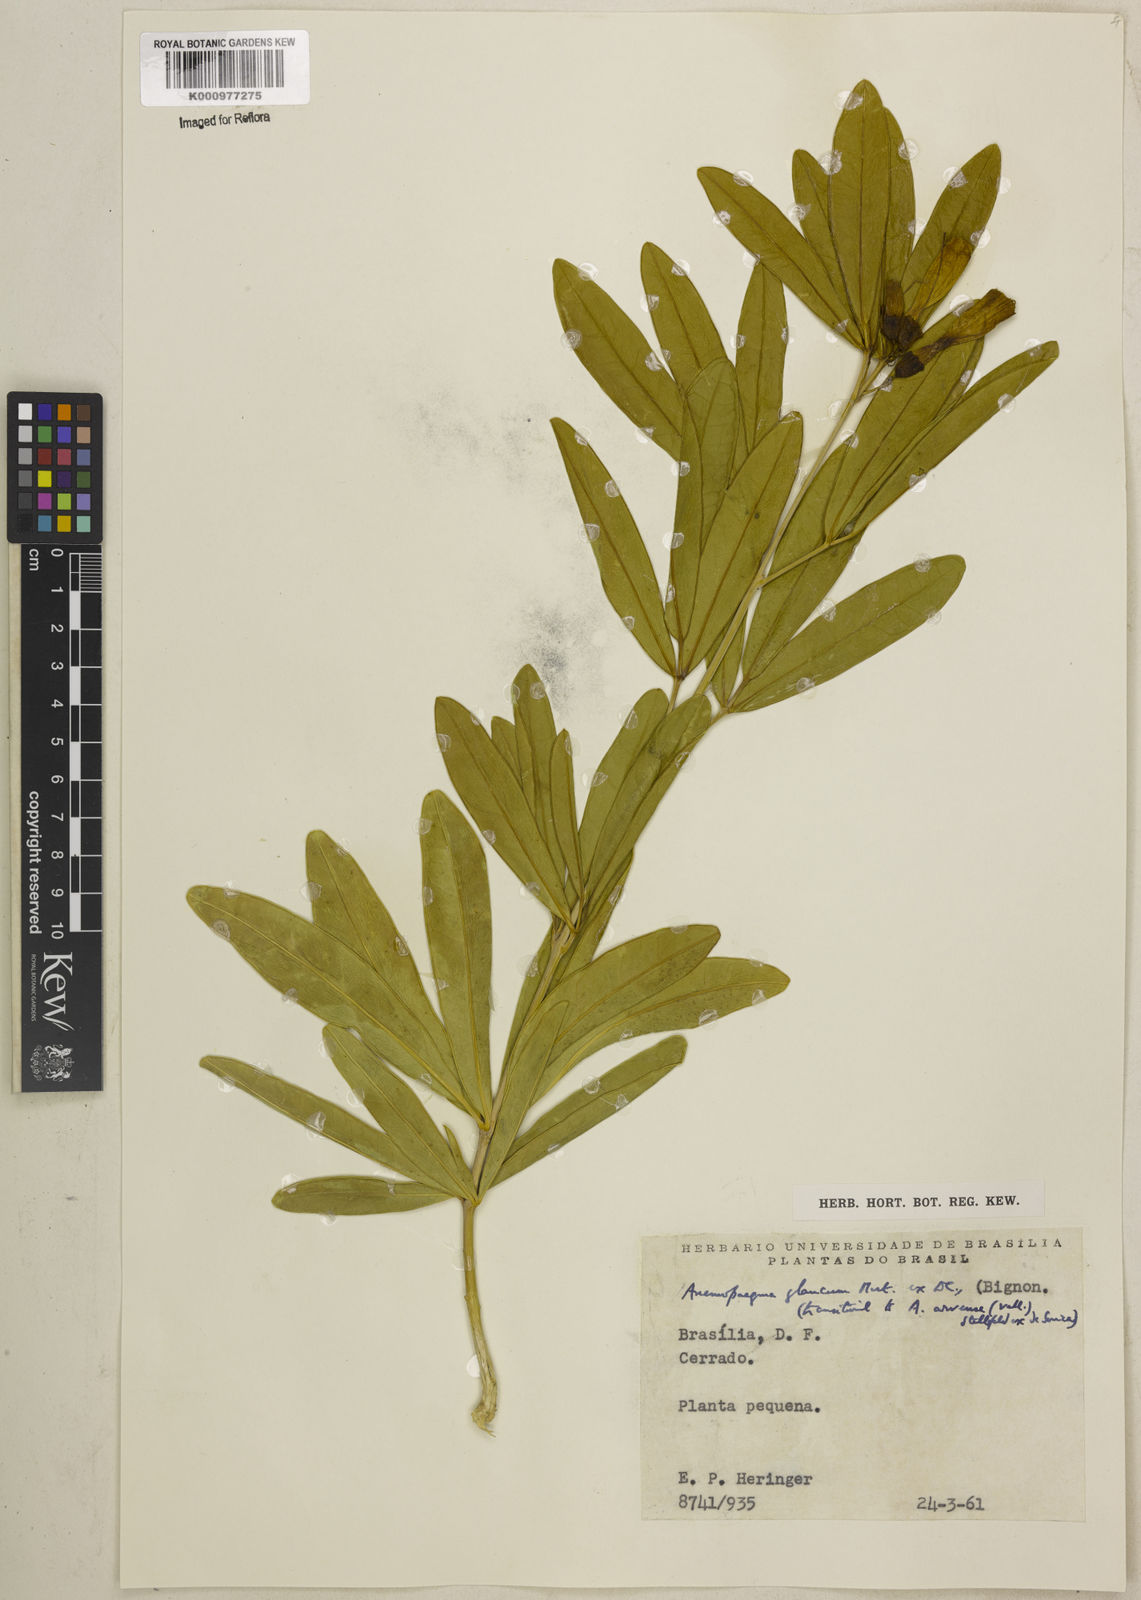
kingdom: Plantae
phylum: Tracheophyta
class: Magnoliopsida
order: Lamiales
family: Bignoniaceae
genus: Anemopaegma
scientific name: Anemopaegma glaucum
